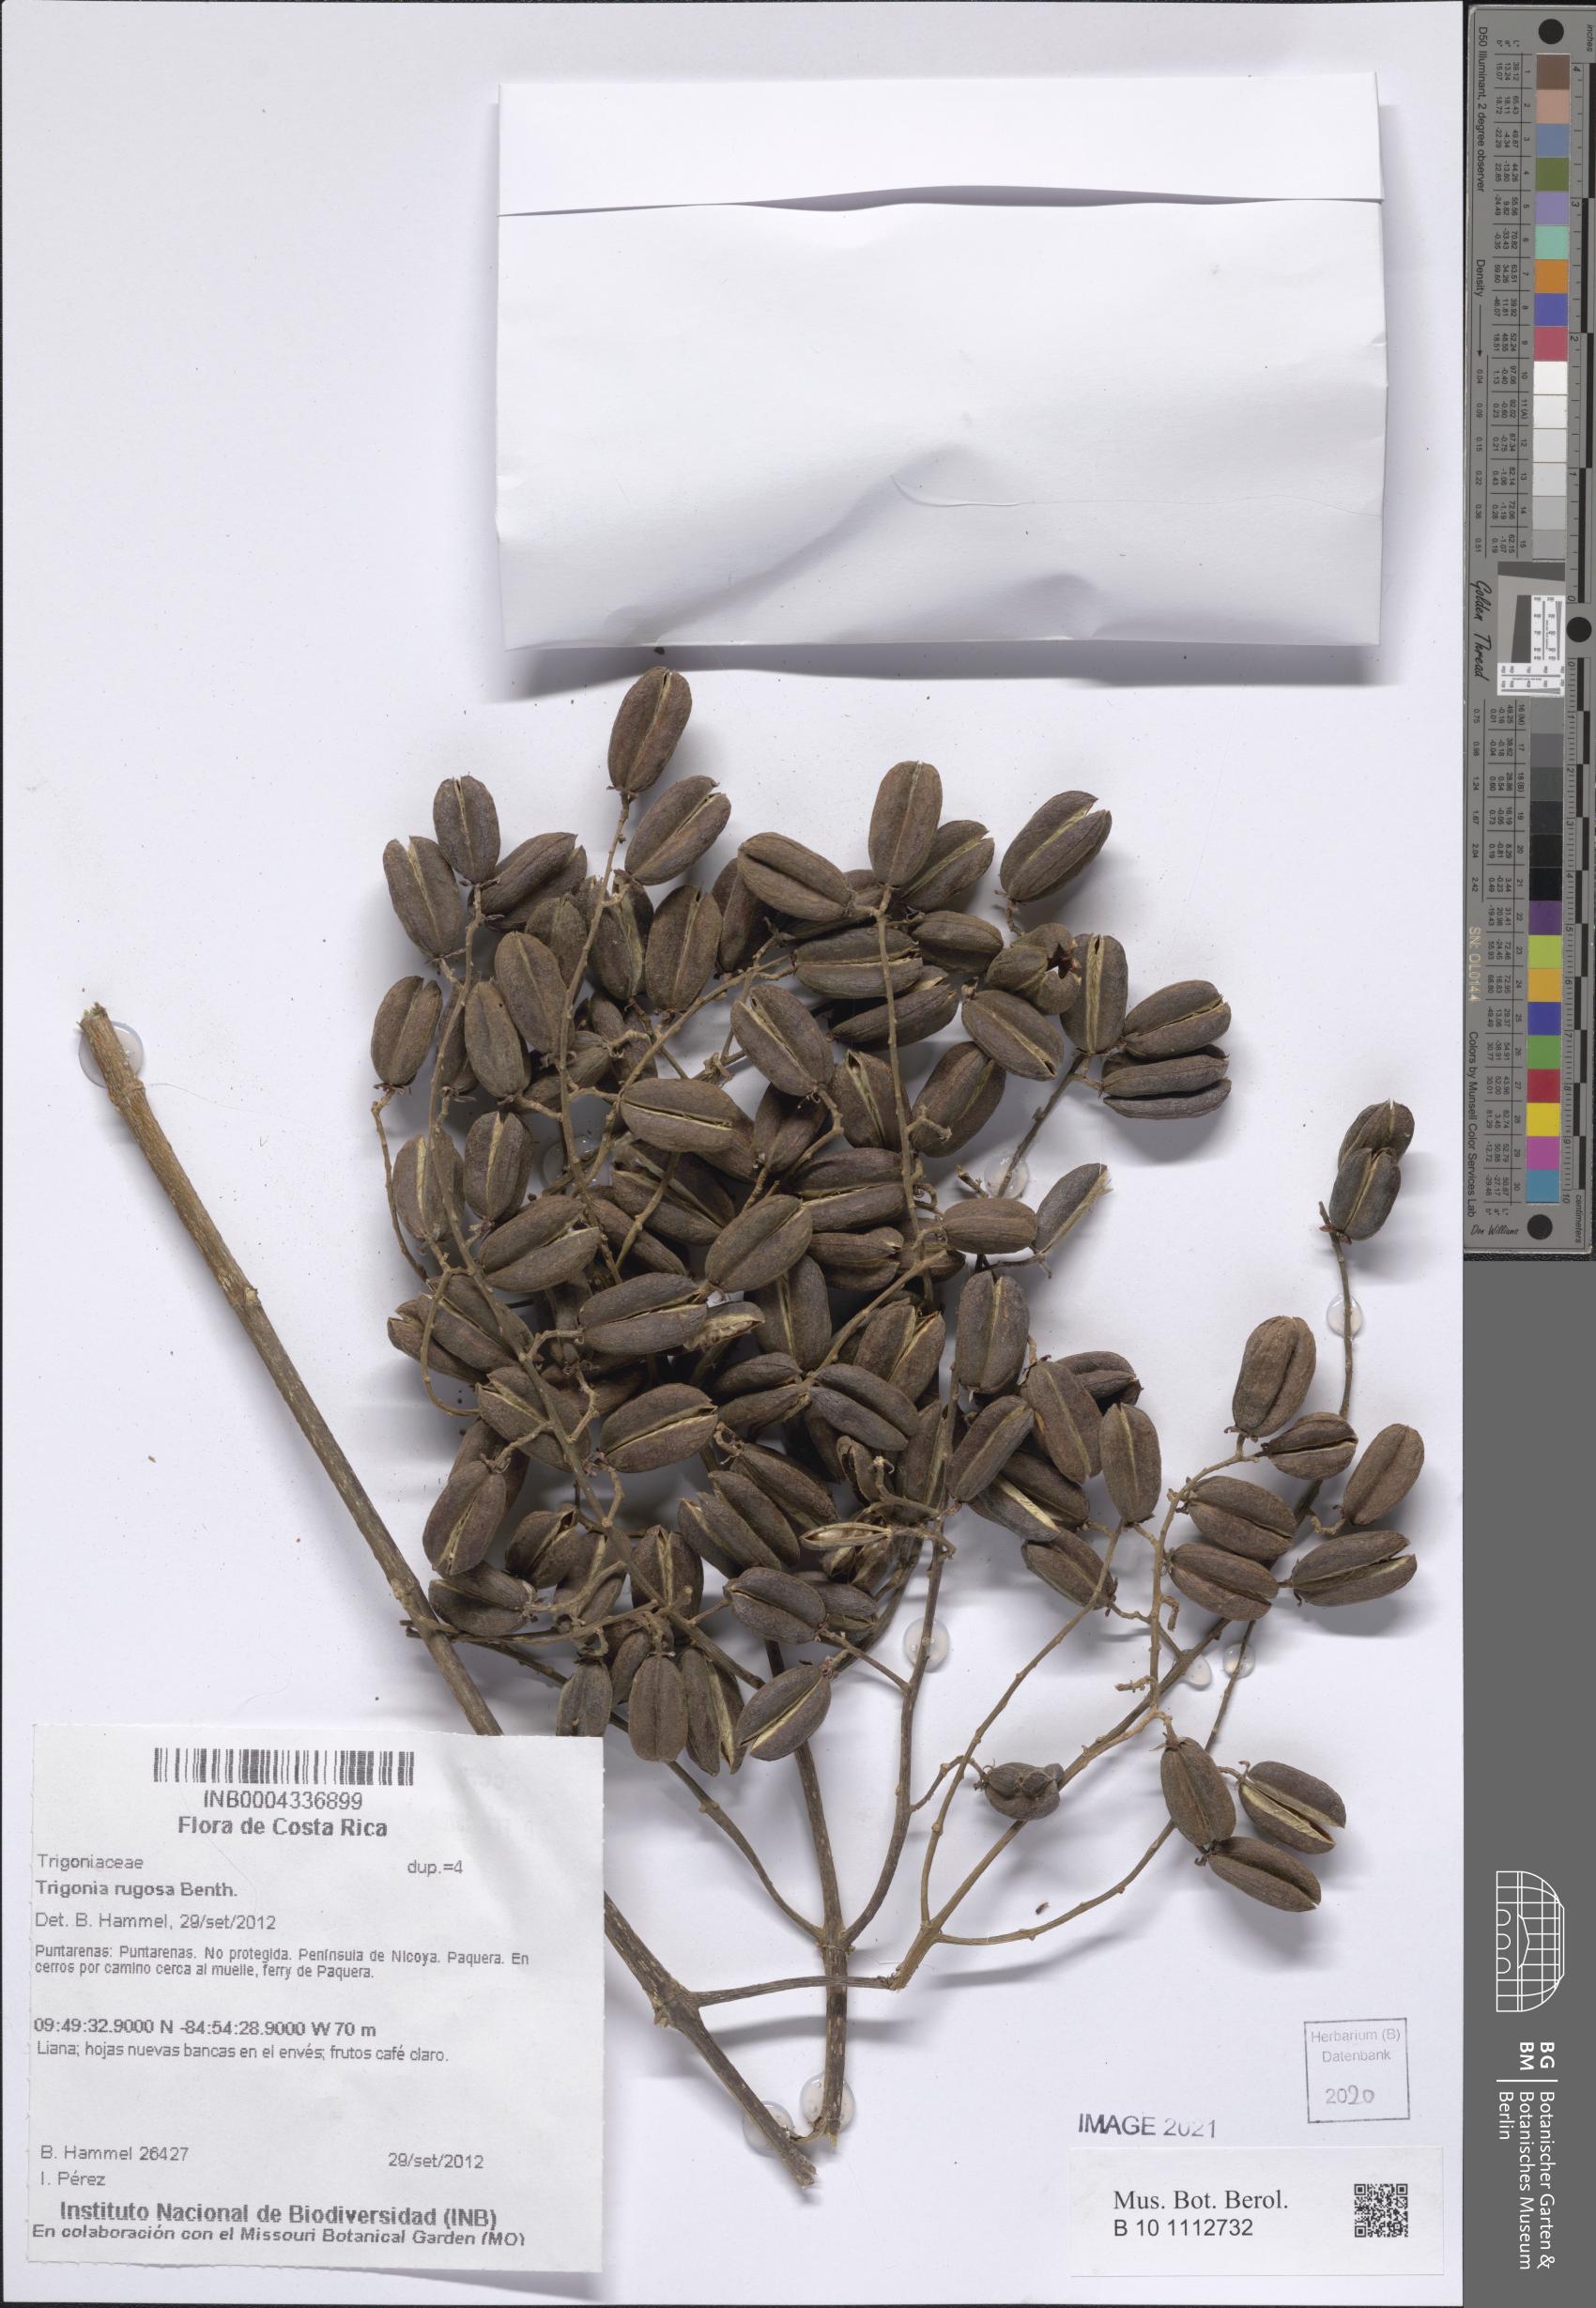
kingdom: Plantae
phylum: Tracheophyta
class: Magnoliopsida
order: Malpighiales
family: Trigoniaceae
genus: Trigonia
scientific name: Trigonia rugosa
